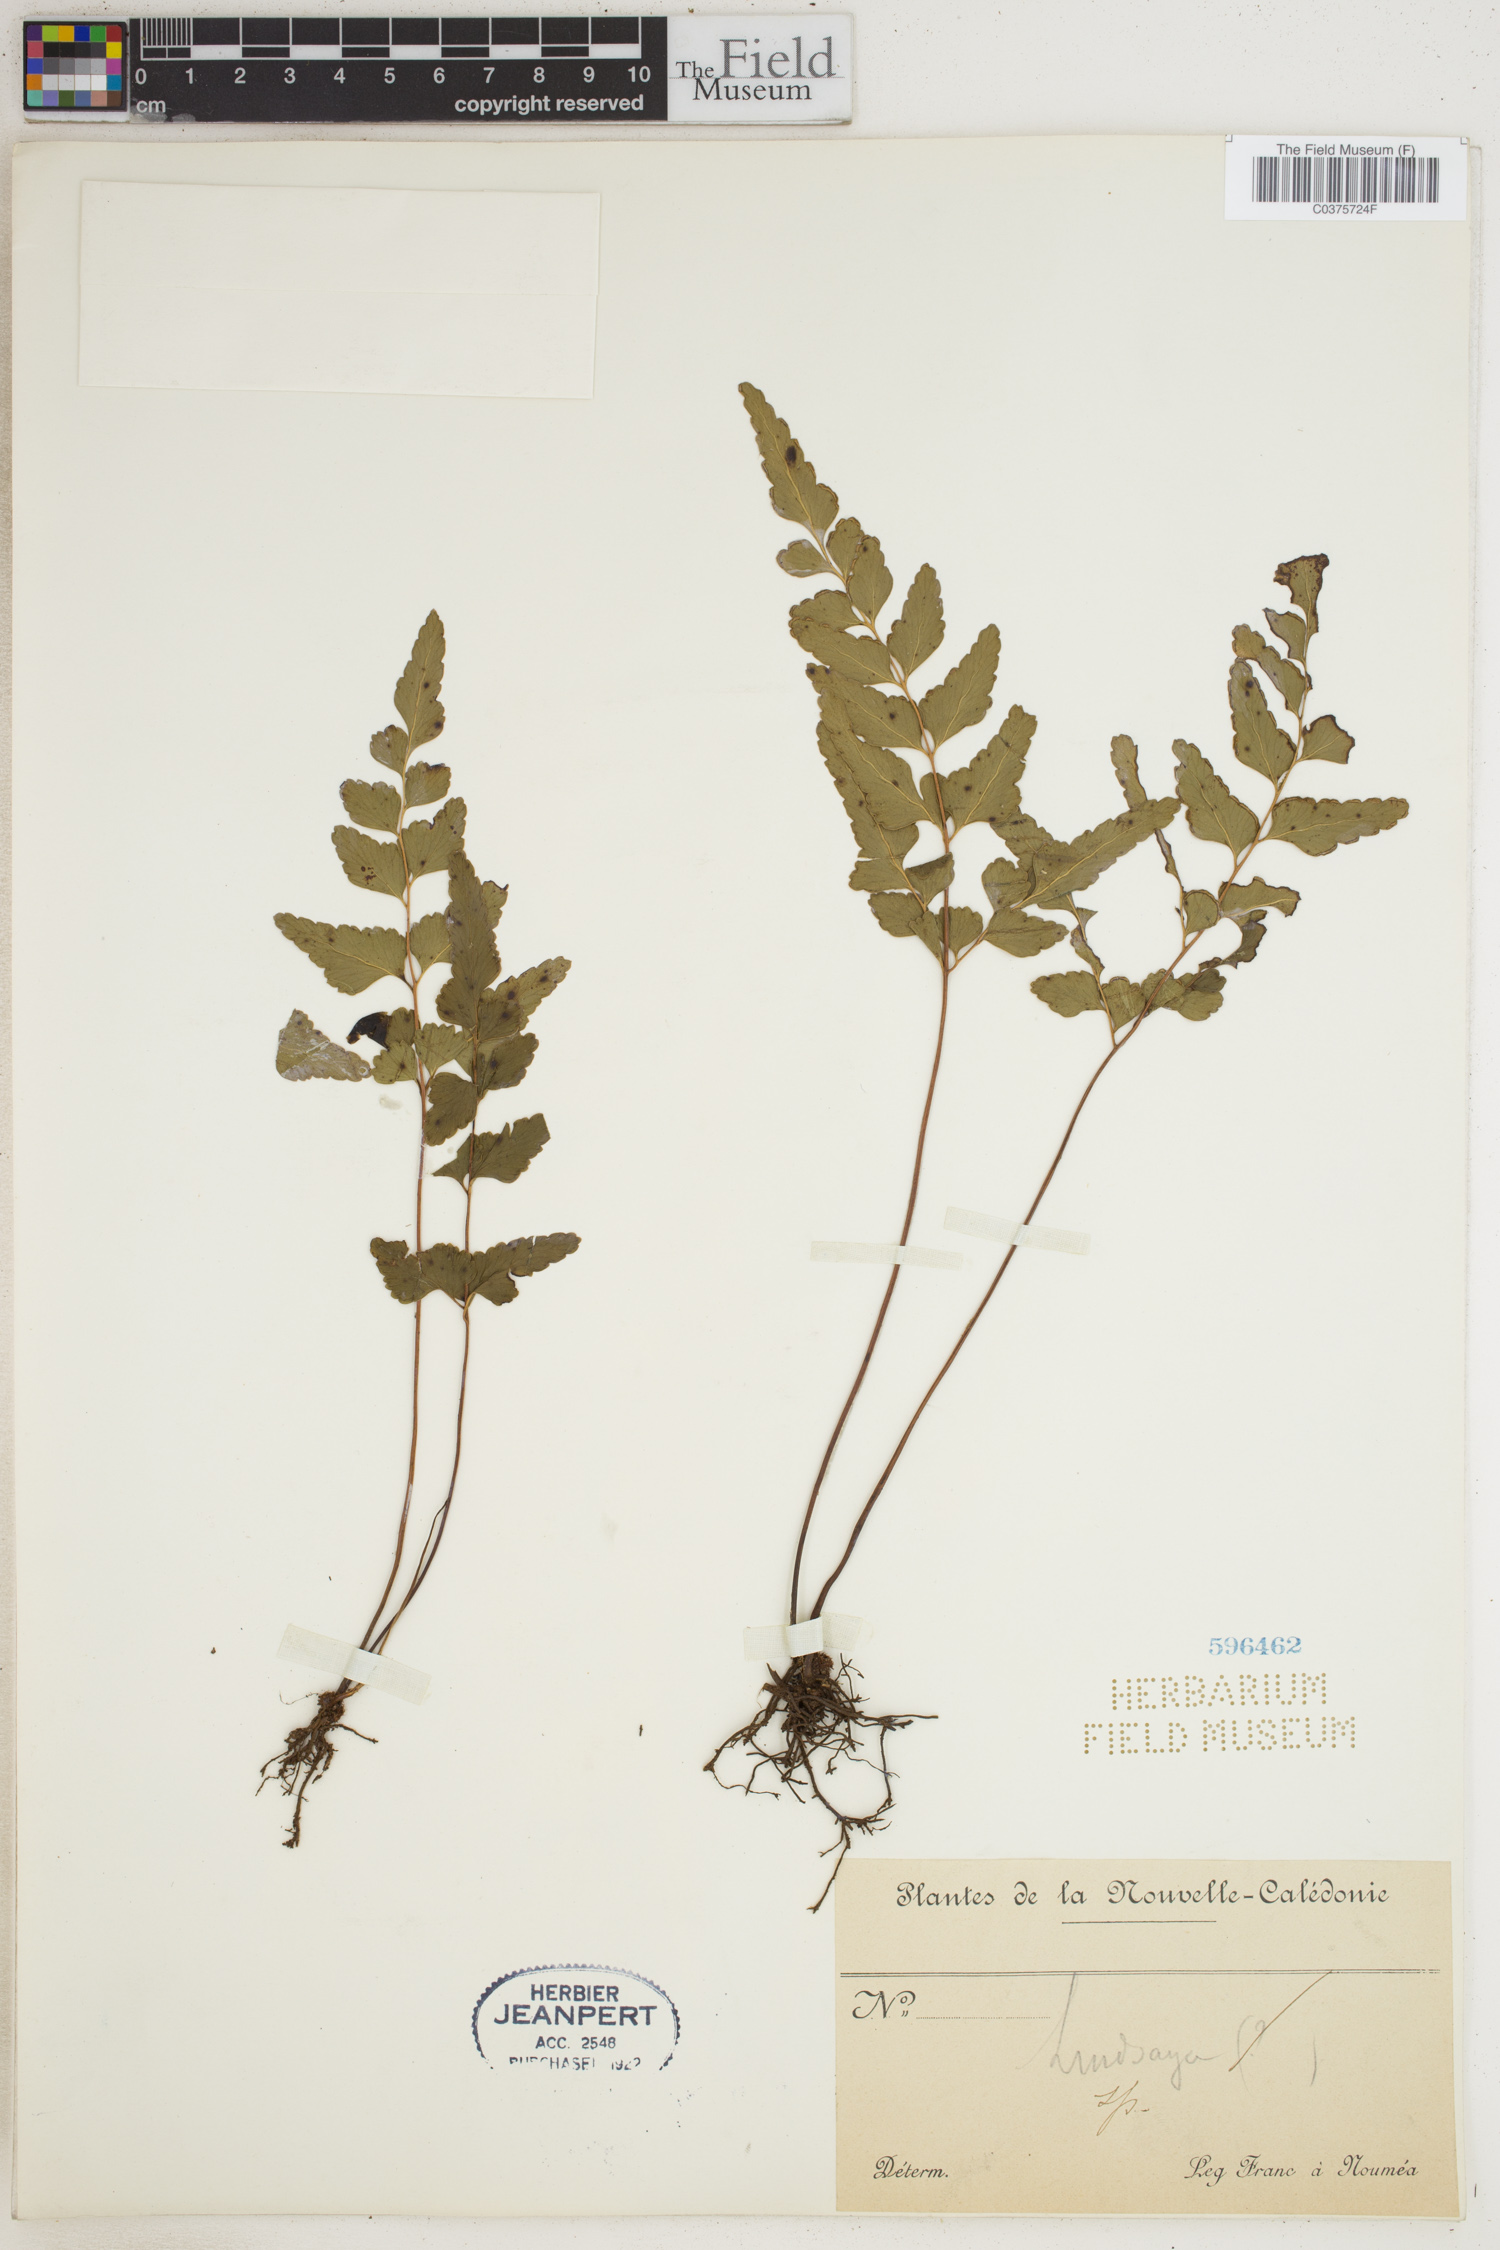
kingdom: Plantae
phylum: Tracheophyta
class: Polypodiopsida
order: Polypodiales
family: Lindsaeaceae
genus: Lindsaea
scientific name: Lindsaea
